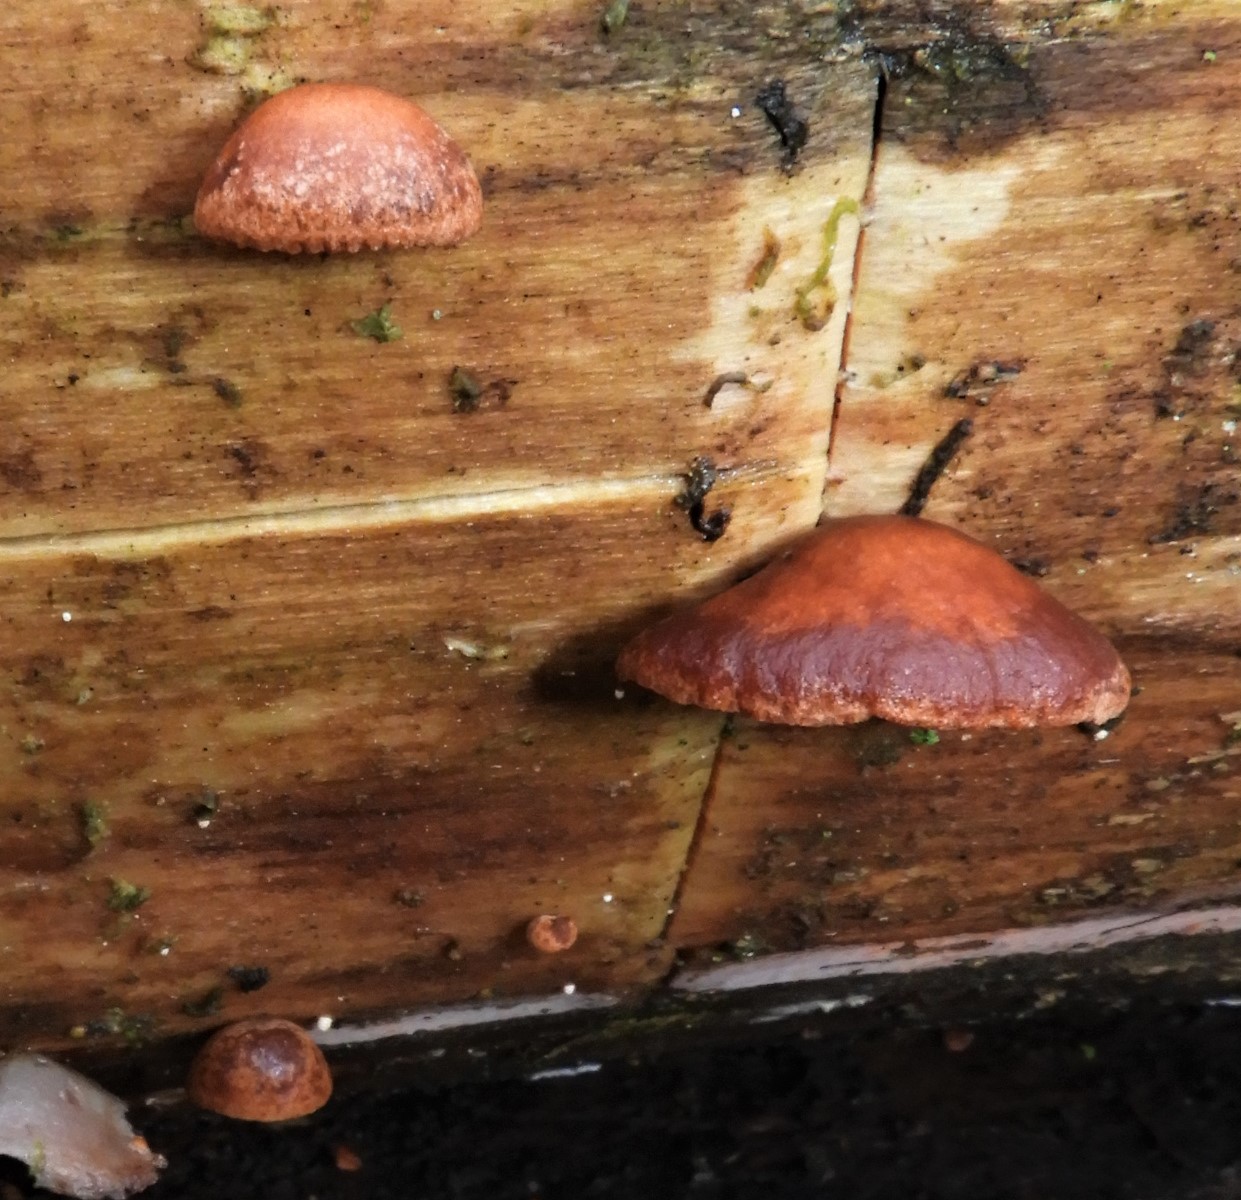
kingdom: Fungi
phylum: Basidiomycota
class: Agaricomycetes
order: Agaricales
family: Strophariaceae
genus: Deconica
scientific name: Deconica horizontalis
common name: ved-stråhat
